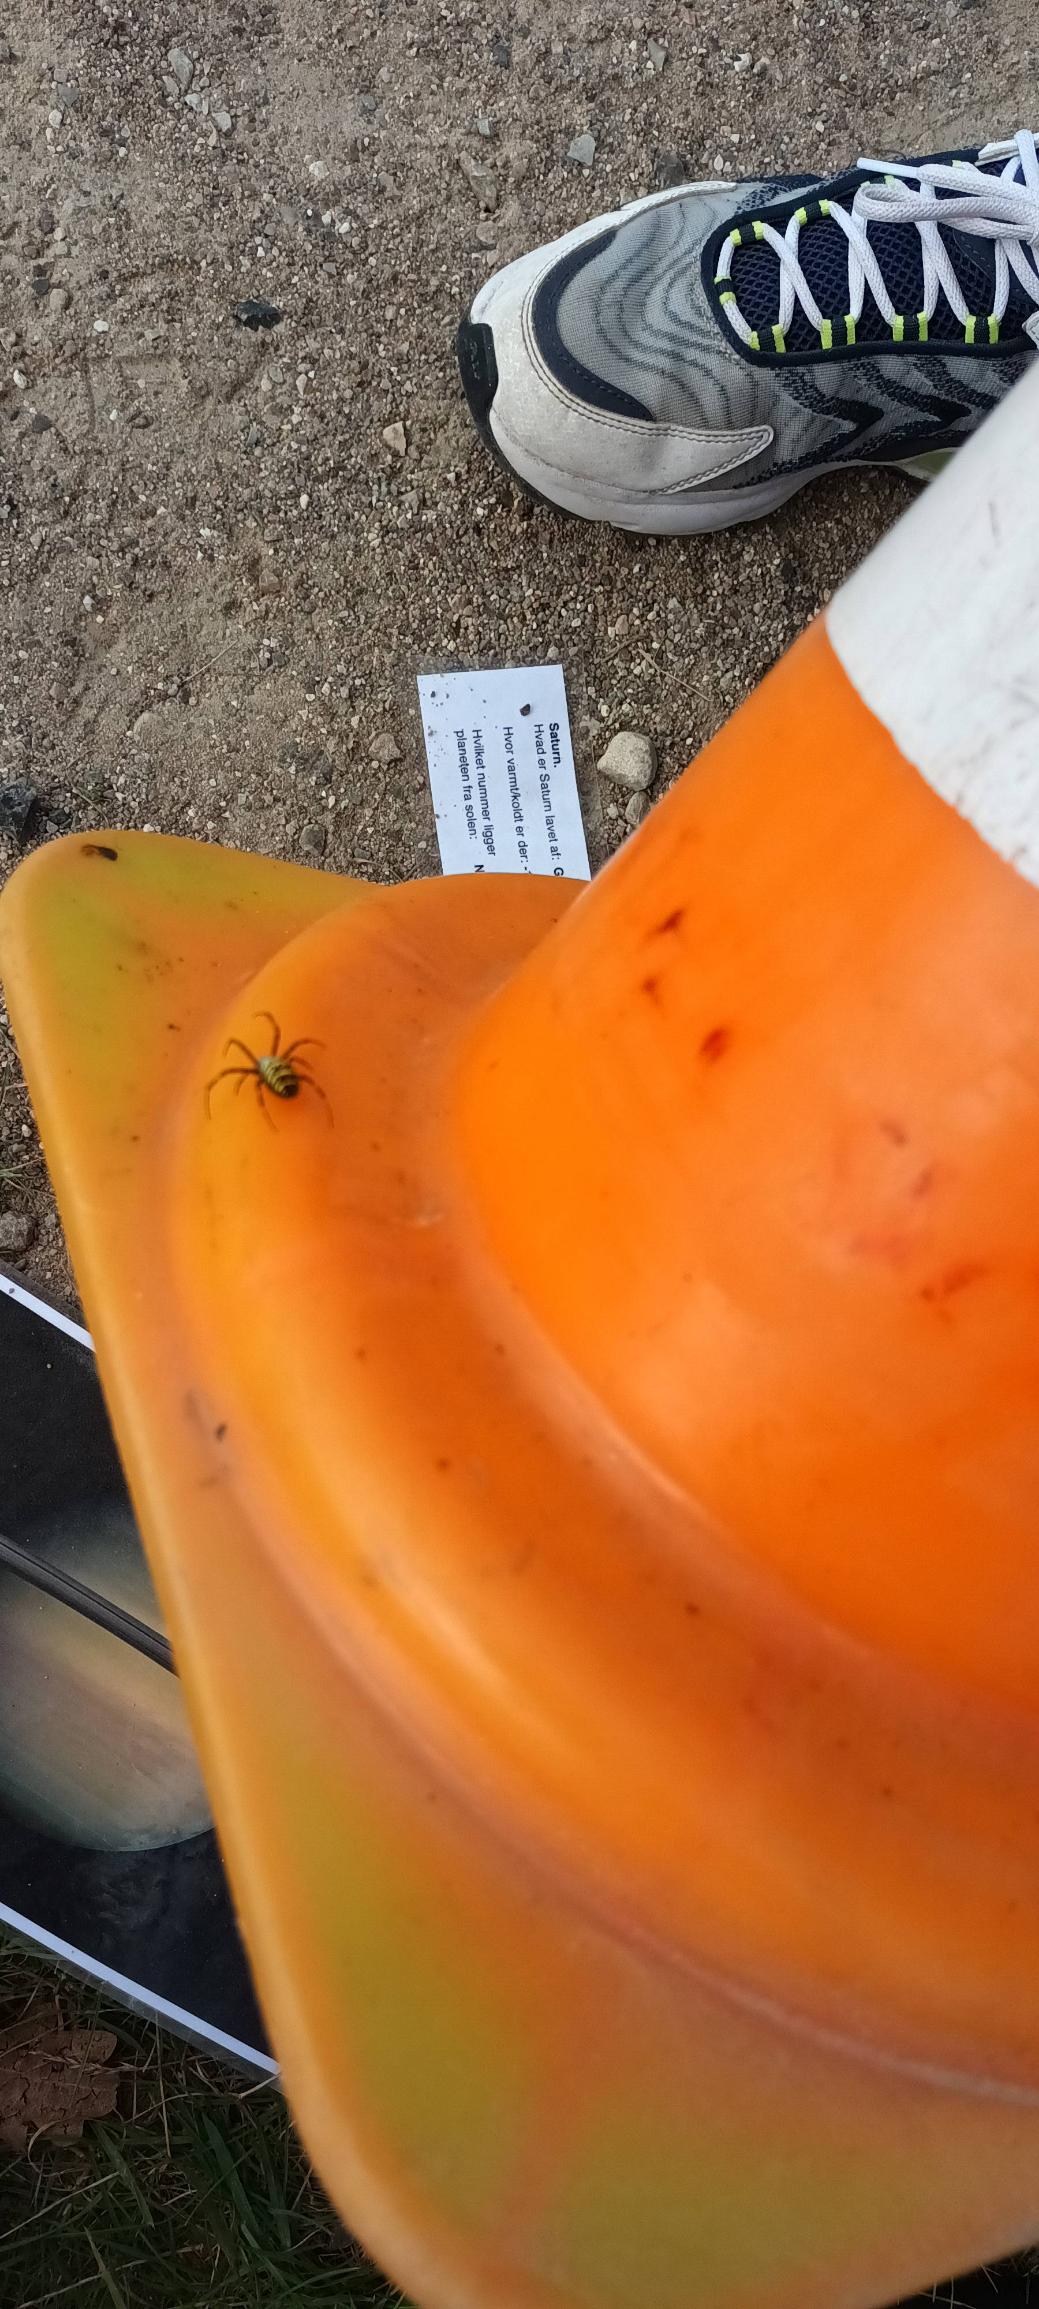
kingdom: Animalia
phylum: Arthropoda
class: Arachnida
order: Araneae
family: Araneidae
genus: Argiope
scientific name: Argiope bruennichi
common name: Hvepseedderkop
